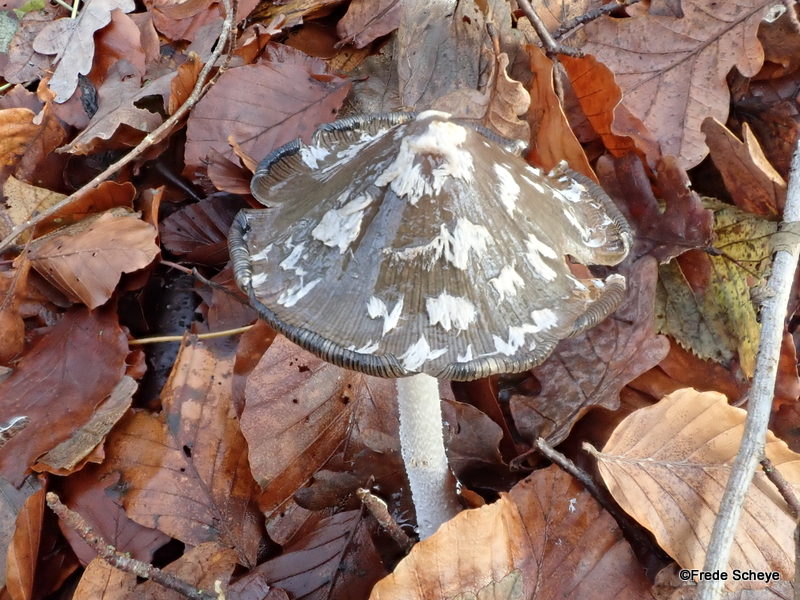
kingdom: Fungi
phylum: Basidiomycota
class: Agaricomycetes
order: Agaricales
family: Psathyrellaceae
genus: Coprinopsis
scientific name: Coprinopsis picacea
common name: skade-blækhat
